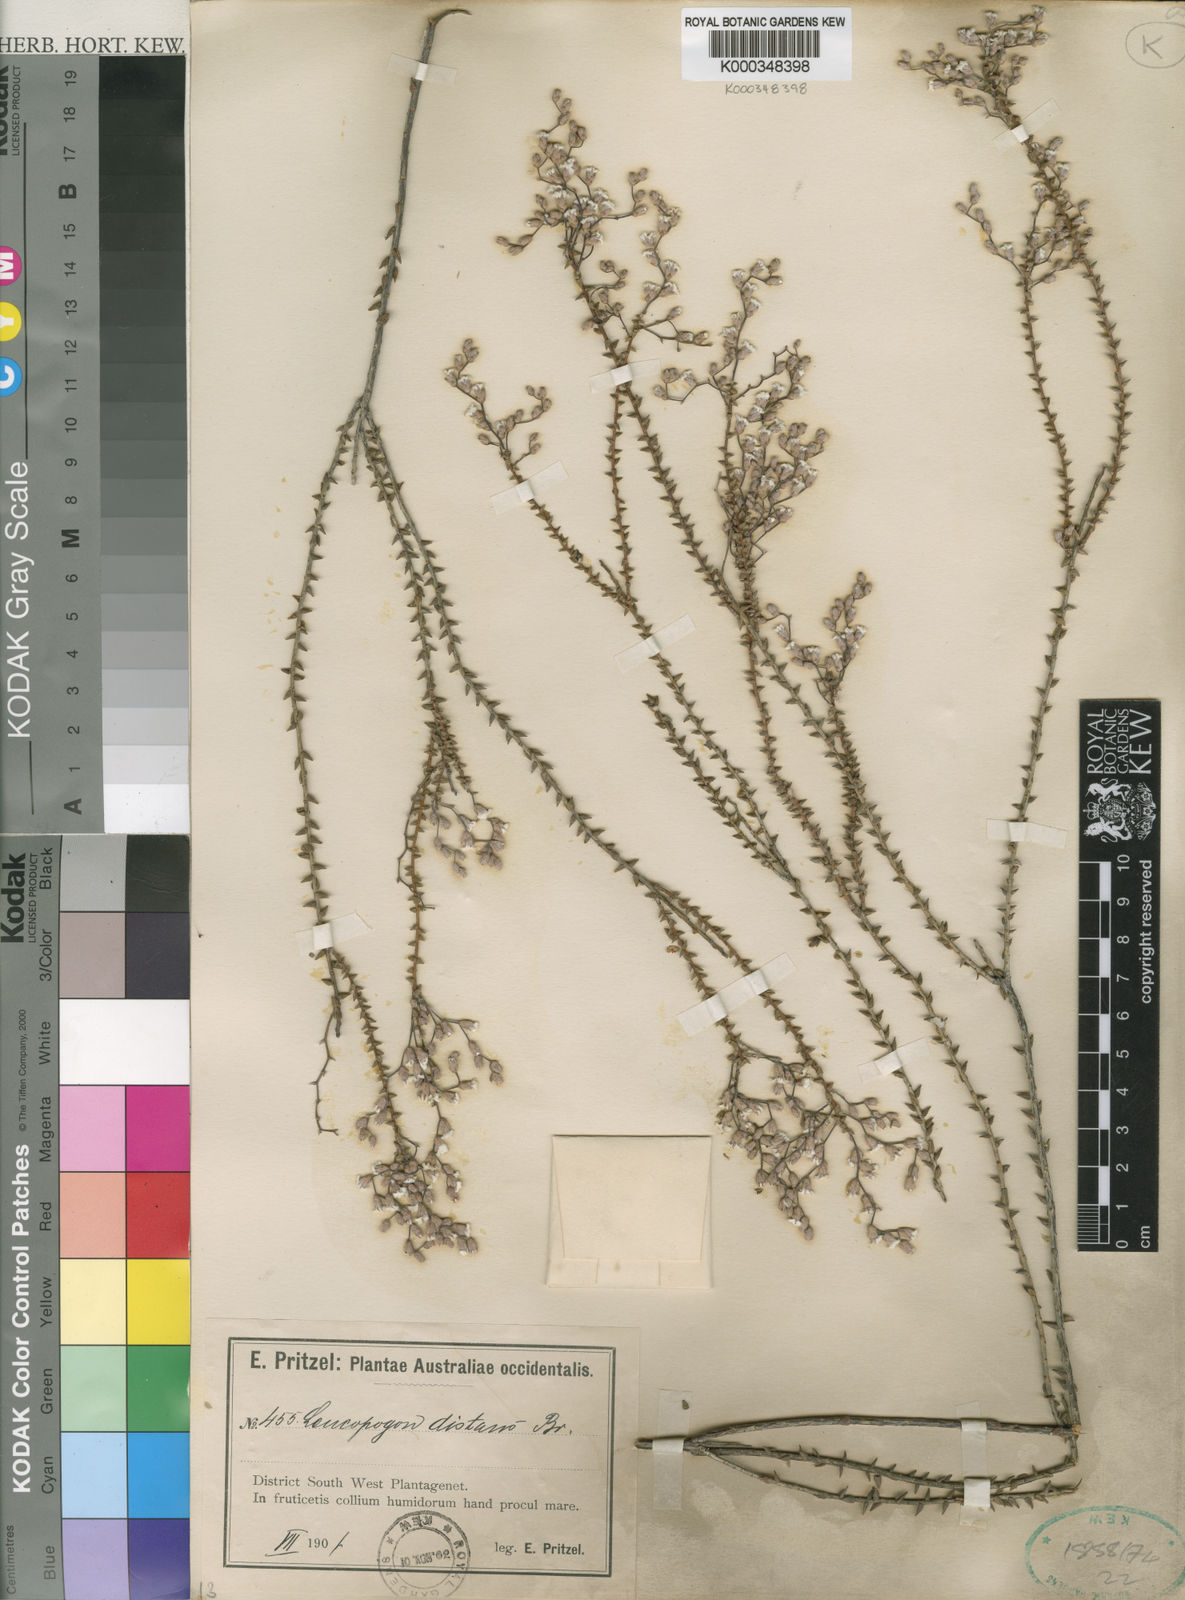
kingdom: Plantae
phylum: Tracheophyta
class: Magnoliopsida
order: Ericales
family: Ericaceae
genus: Leucopogon
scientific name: Leucopogon distans
